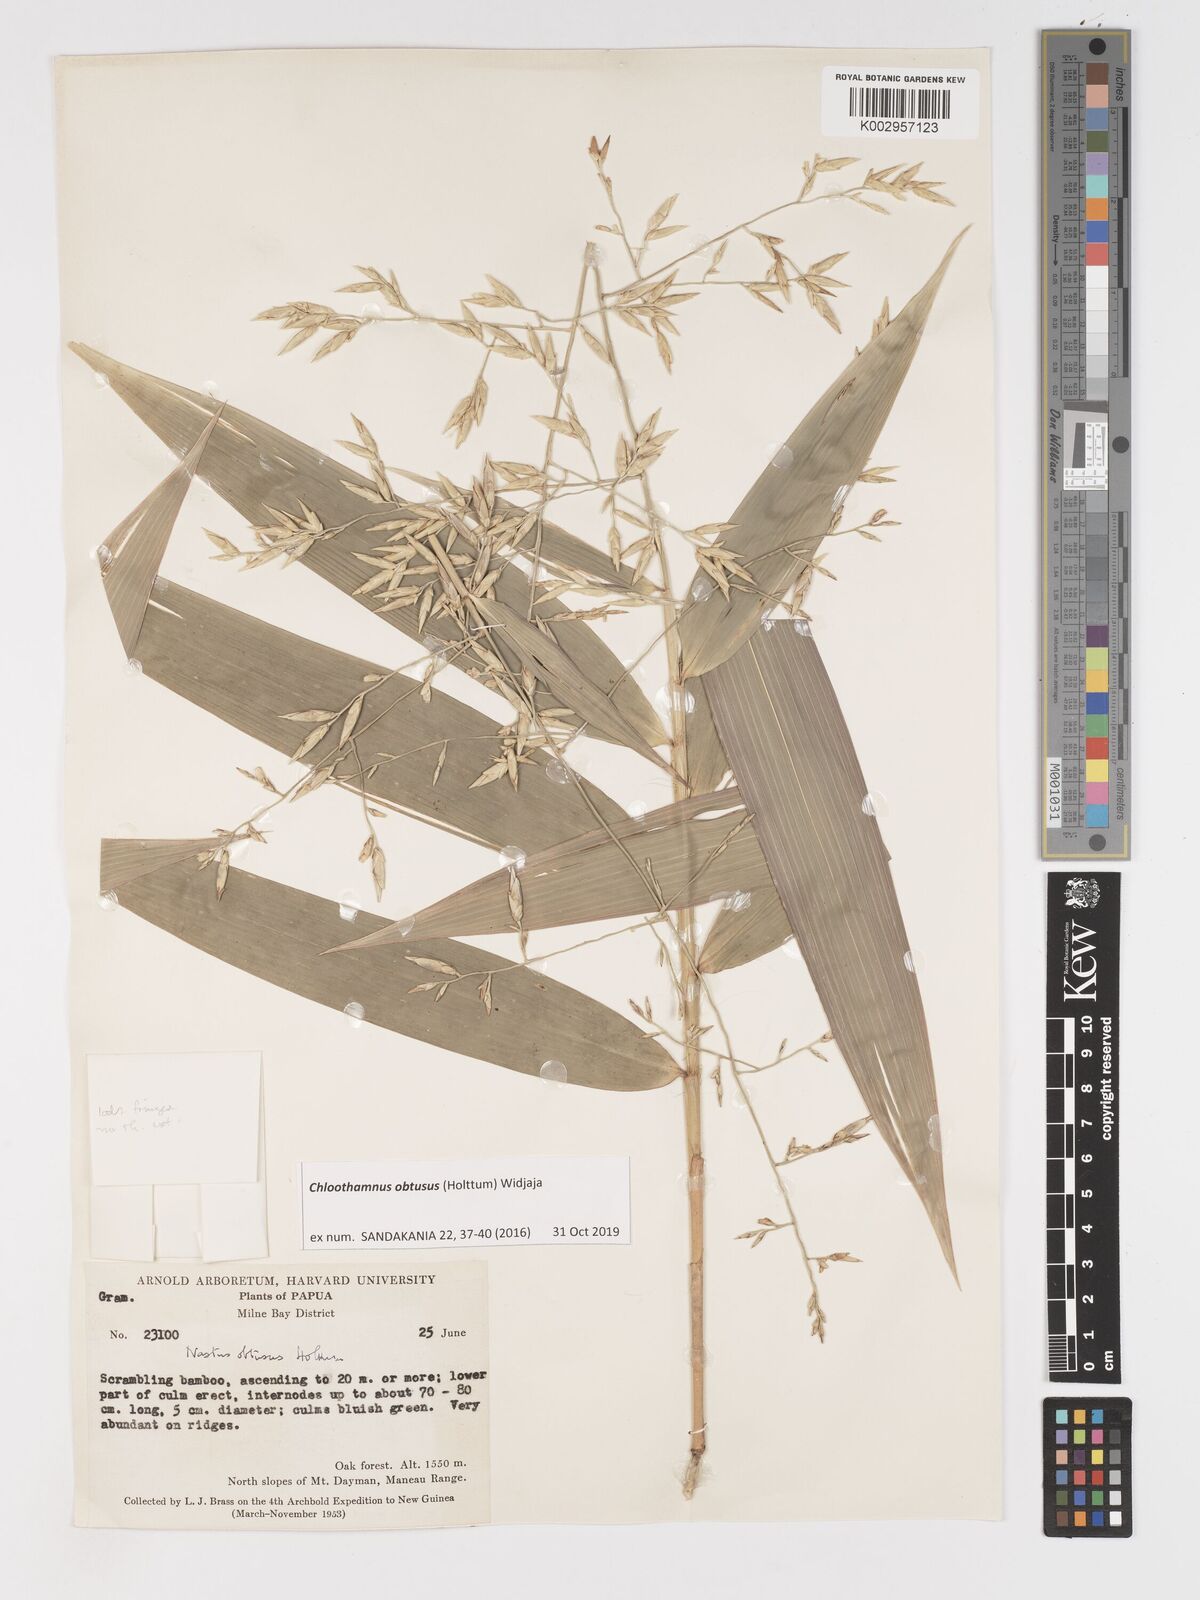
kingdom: Plantae
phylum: Tracheophyta
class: Liliopsida
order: Poales
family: Poaceae
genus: Chloothamnus
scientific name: Chloothamnus obtusus
